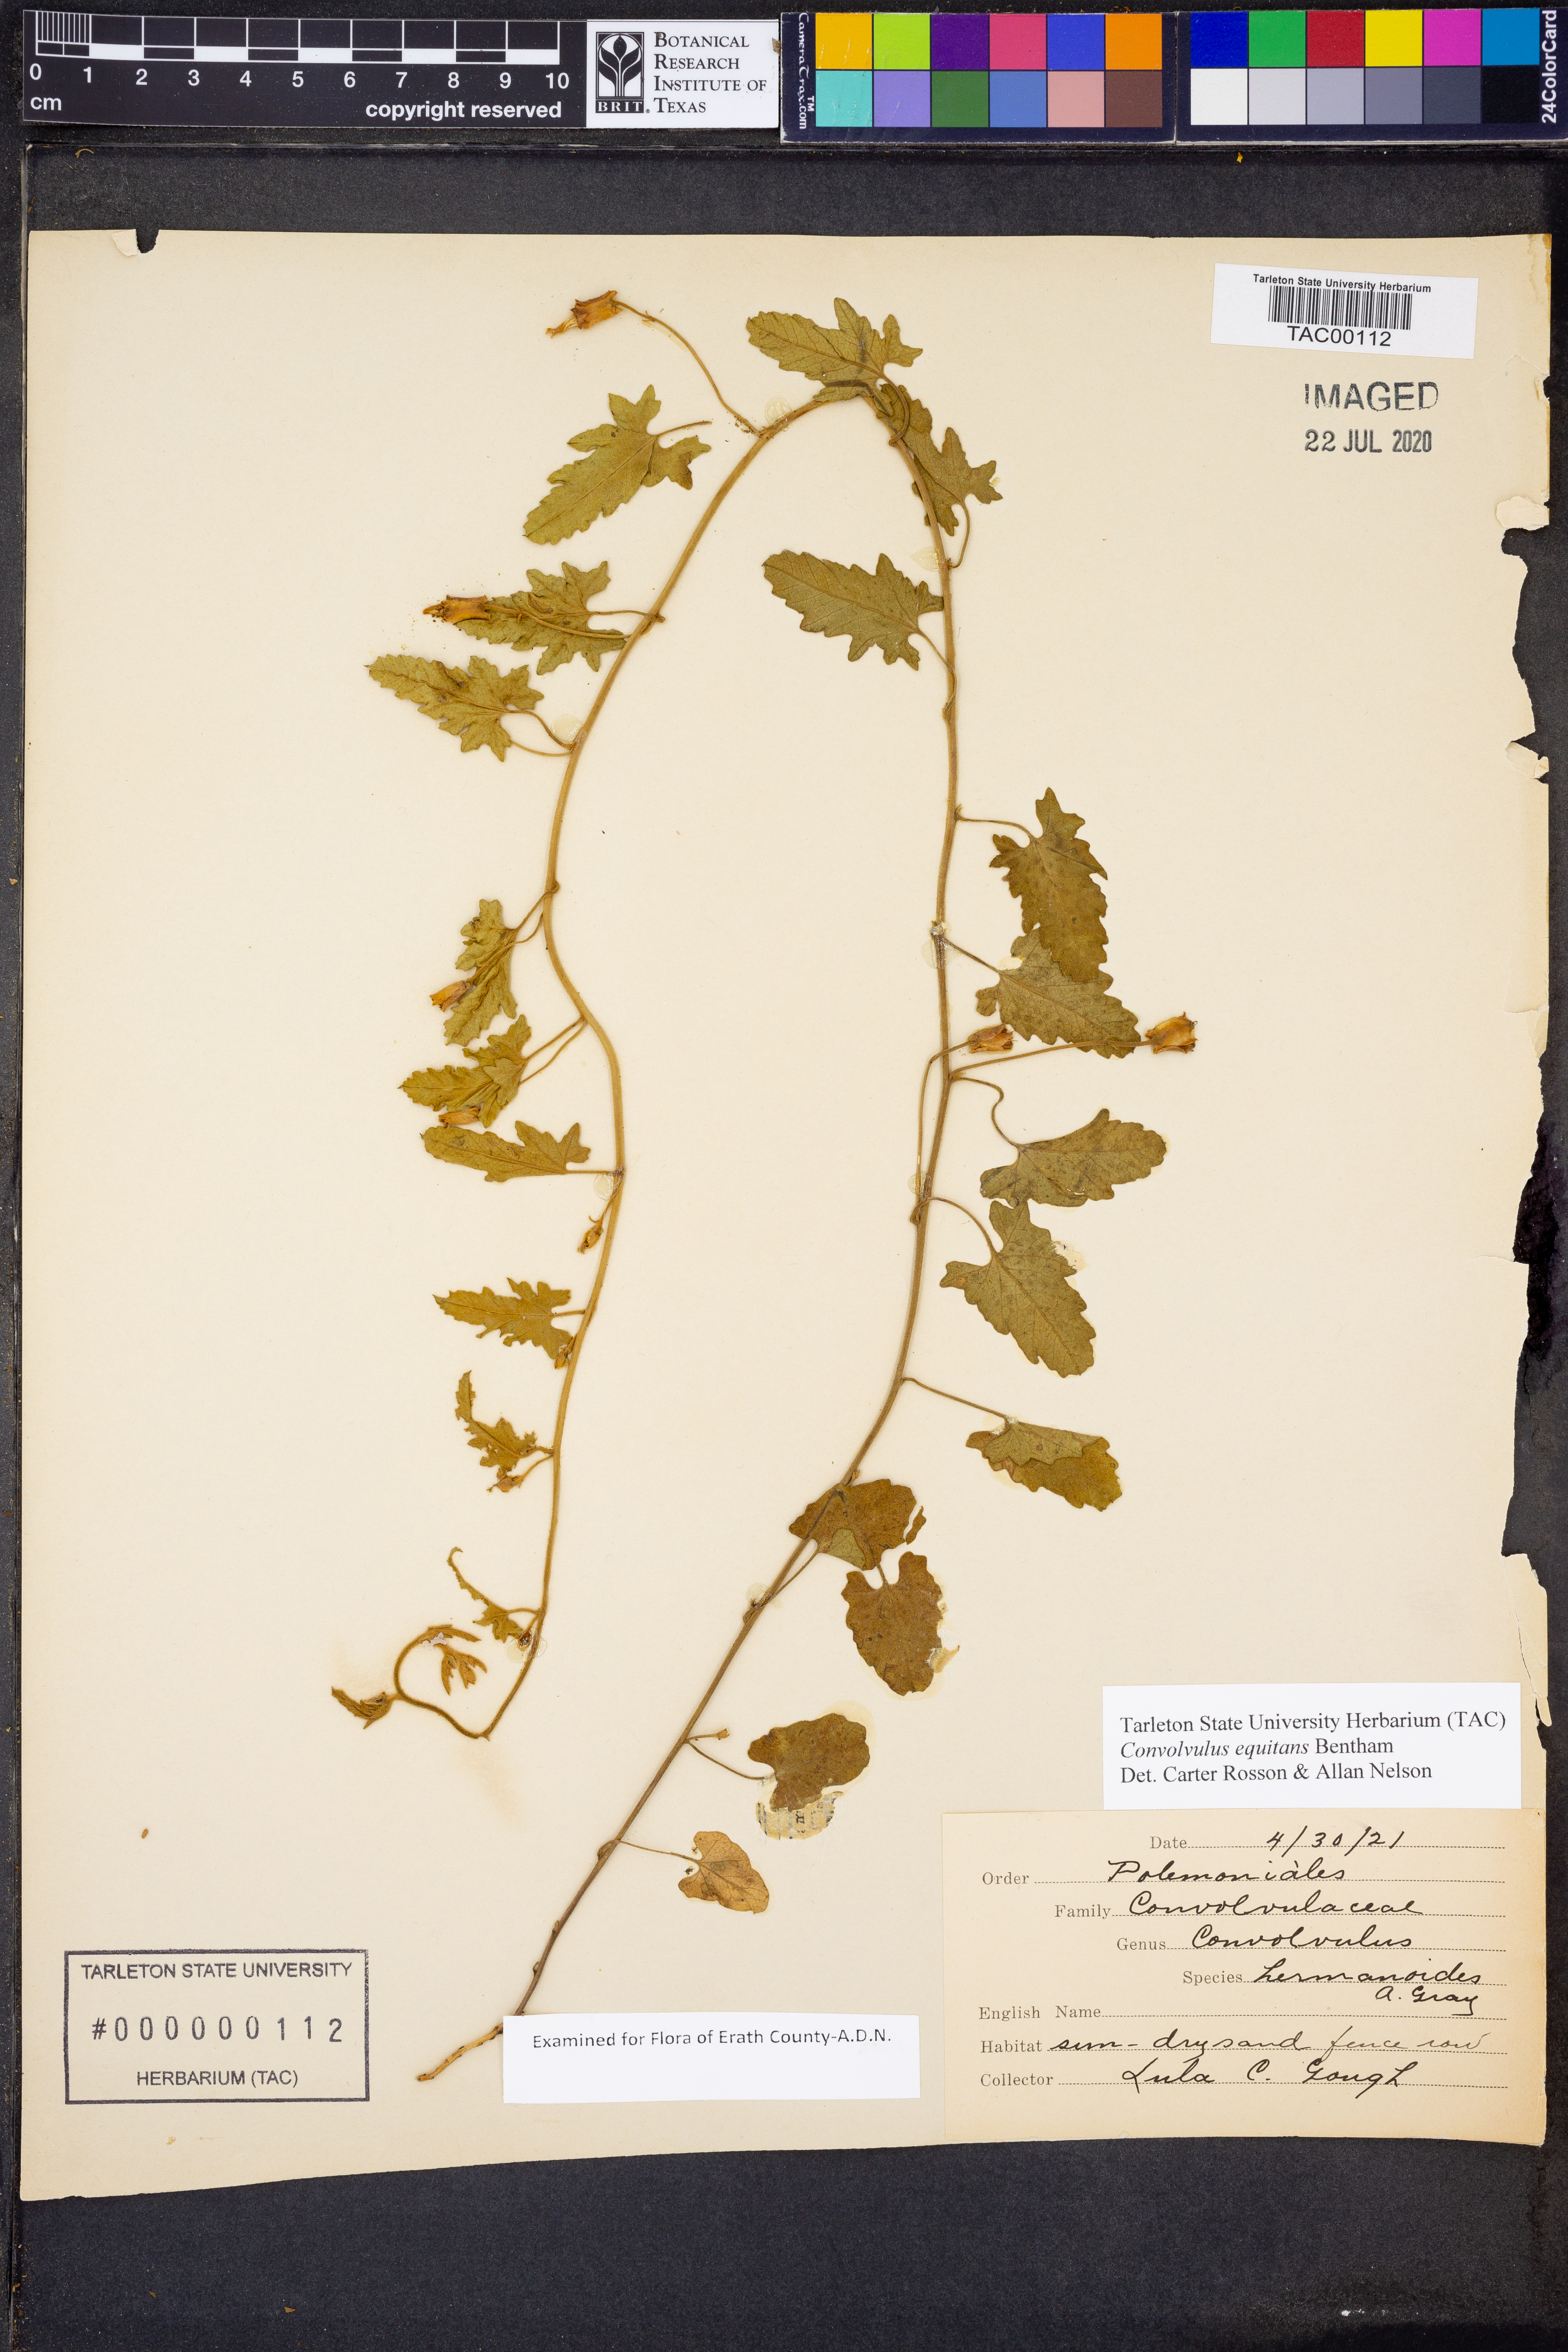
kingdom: Plantae
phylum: Tracheophyta
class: Magnoliopsida
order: Solanales
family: Convolvulaceae
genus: Convolvulus
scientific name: Convolvulus equitans
